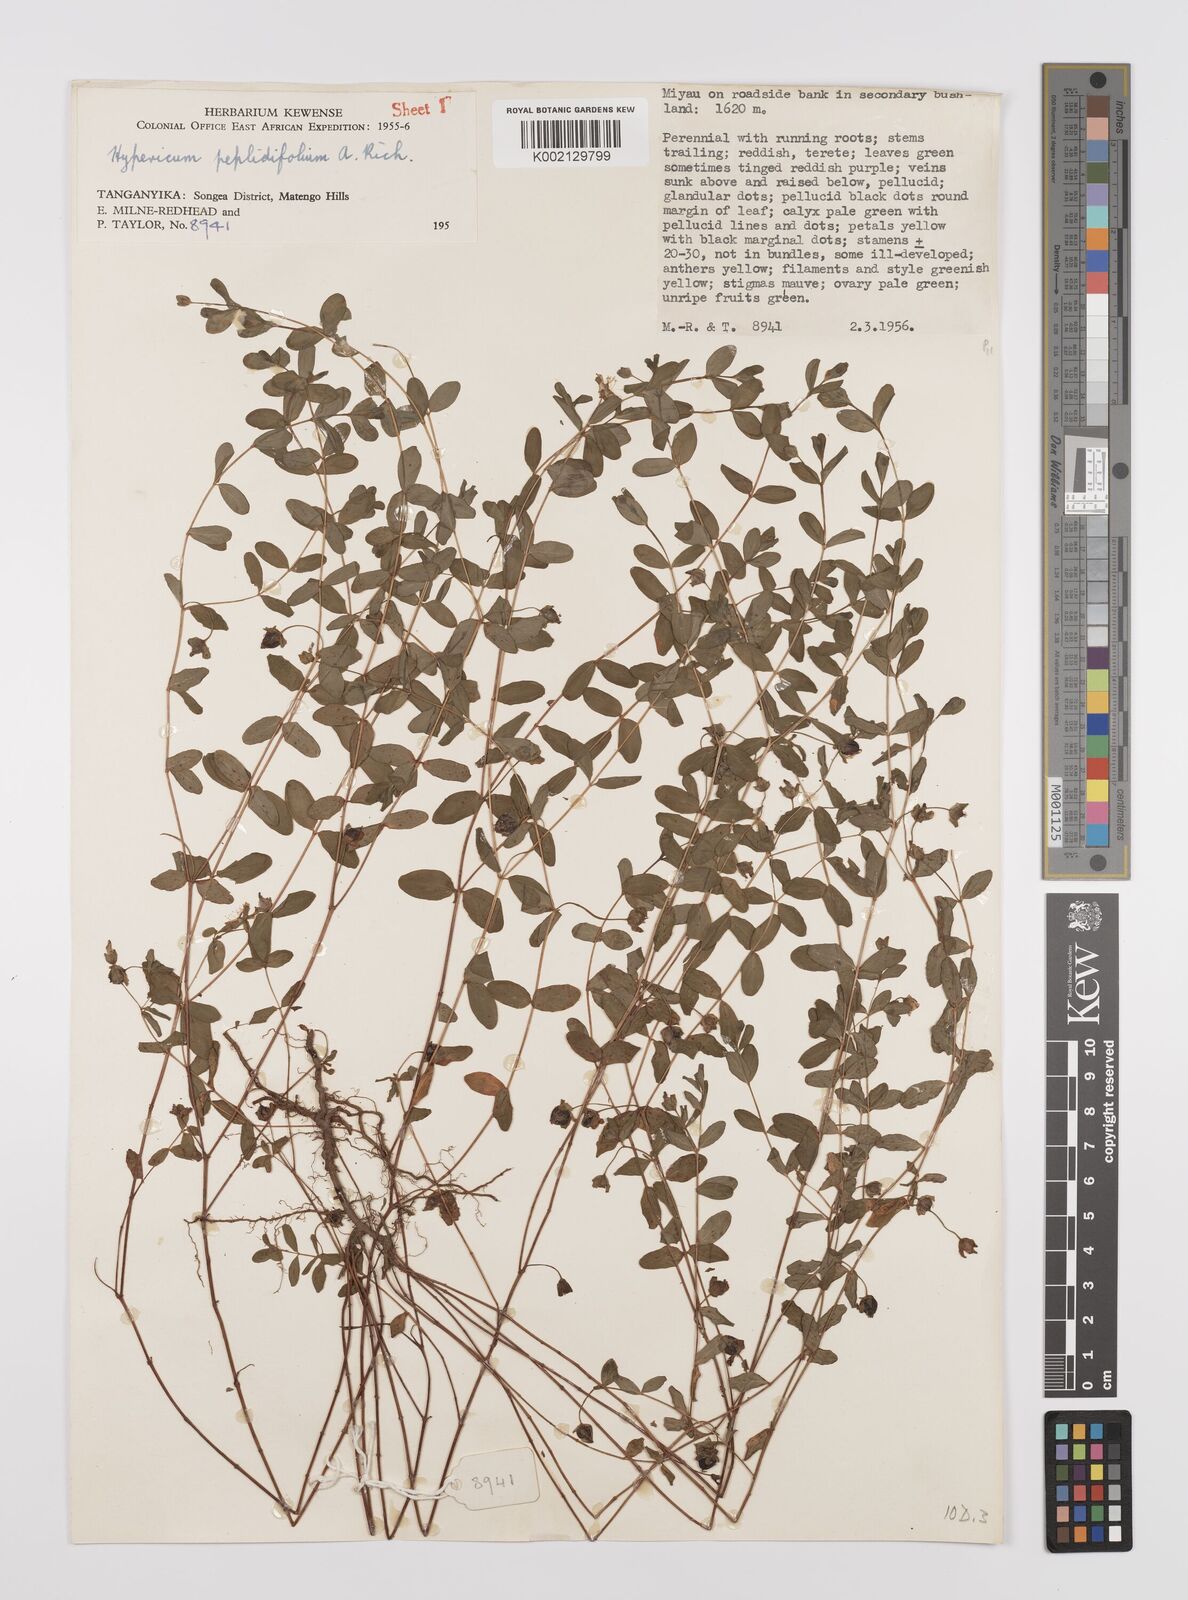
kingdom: Plantae
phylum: Tracheophyta
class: Magnoliopsida
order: Malpighiales
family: Hypericaceae
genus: Hypericum
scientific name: Hypericum peplidifolium
